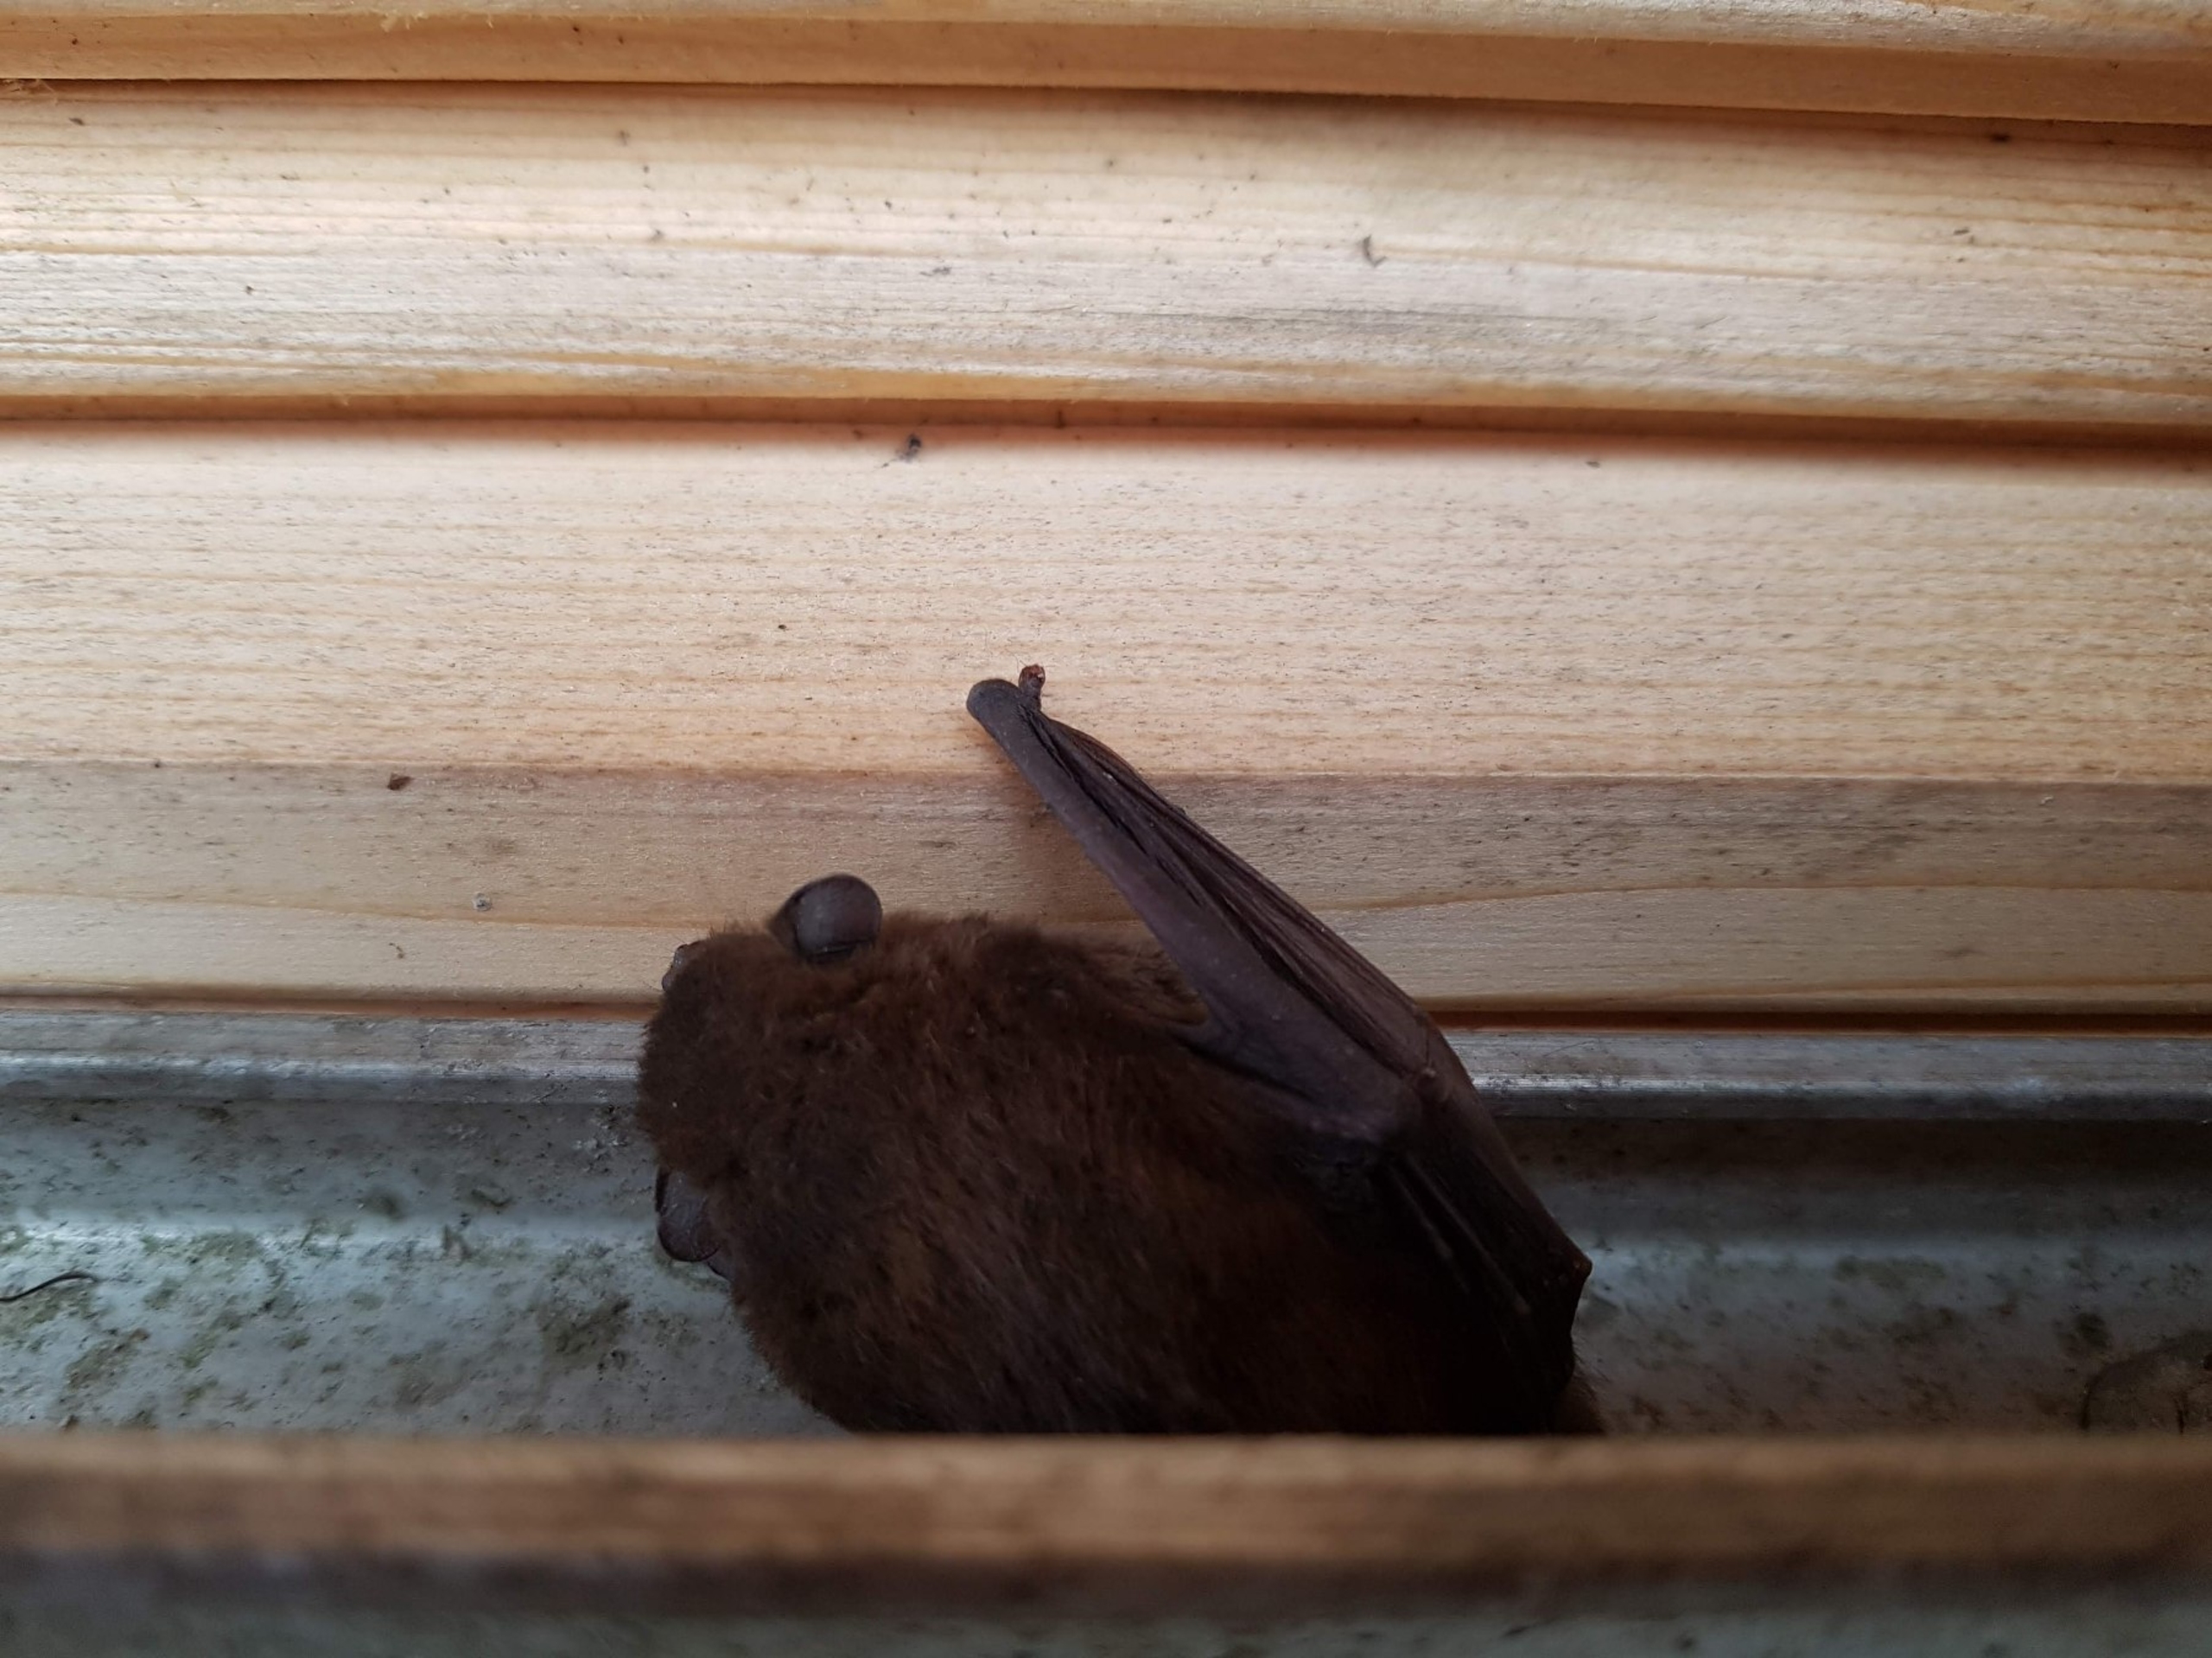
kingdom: Animalia
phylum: Chordata
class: Mammalia
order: Chiroptera
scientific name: Chiroptera
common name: Flagermus
